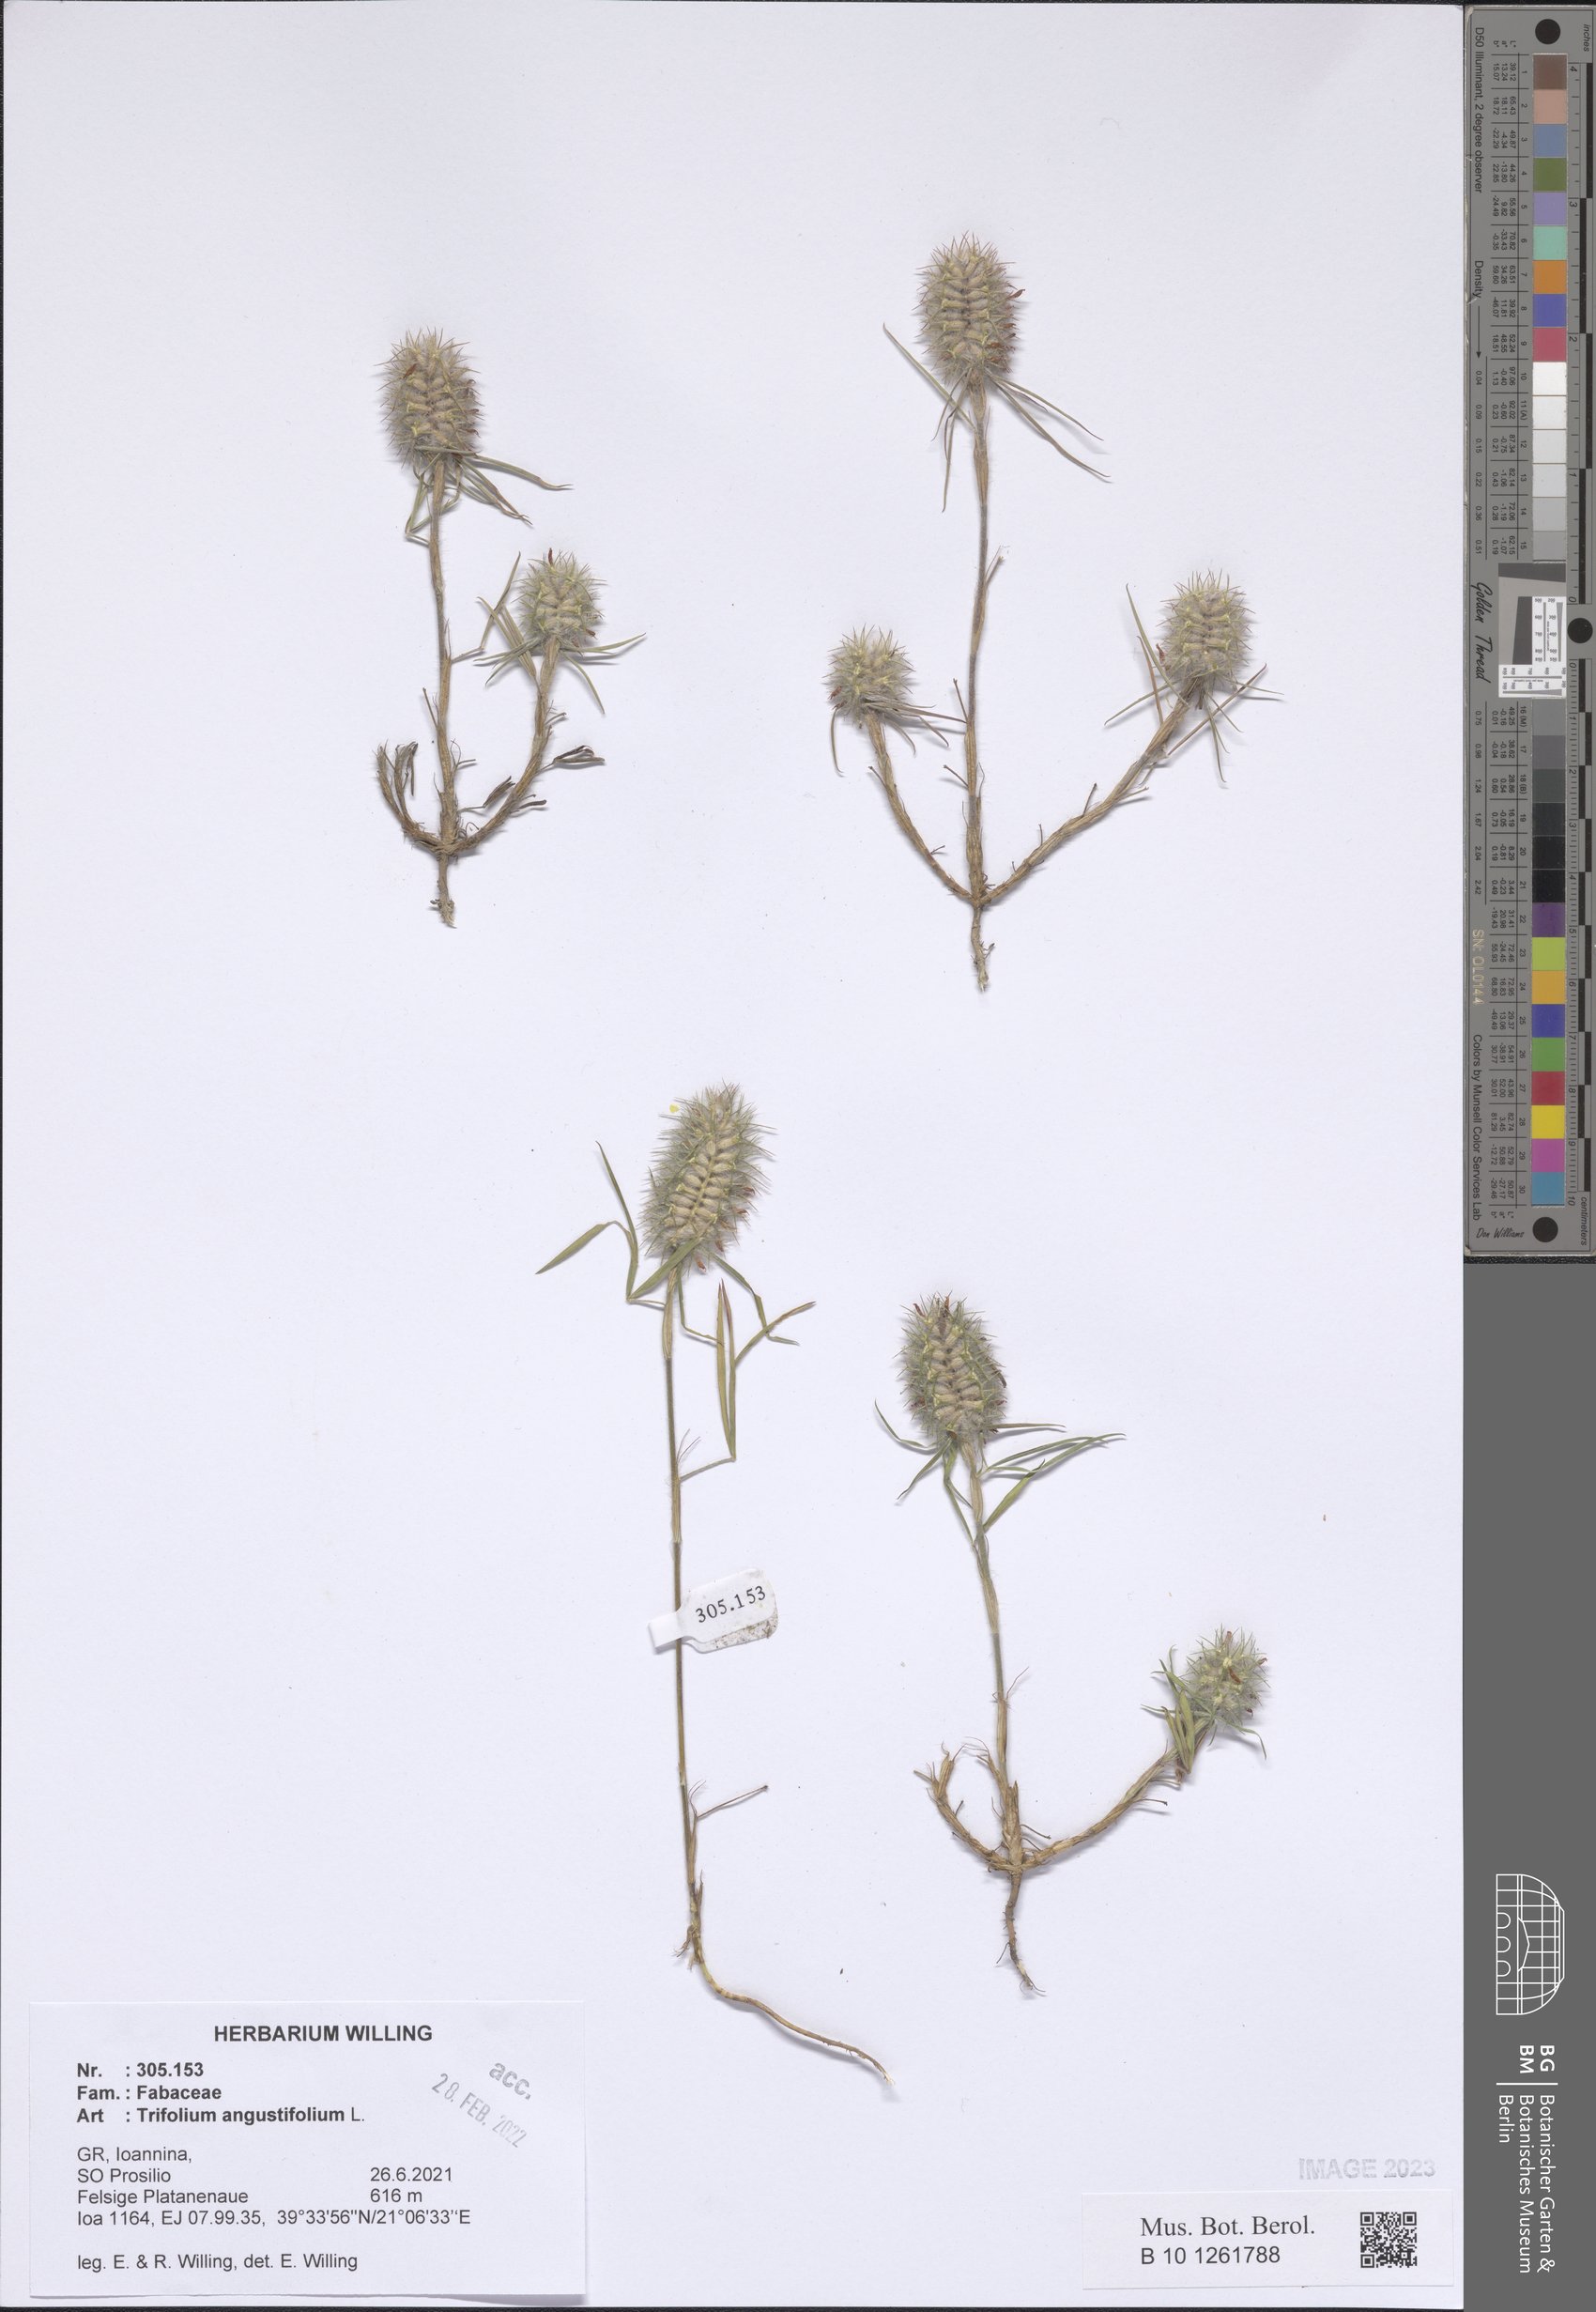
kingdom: Plantae
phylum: Tracheophyta
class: Magnoliopsida
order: Fabales
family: Fabaceae
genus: Trifolium
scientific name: Trifolium angustifolium
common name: Narrow clover
